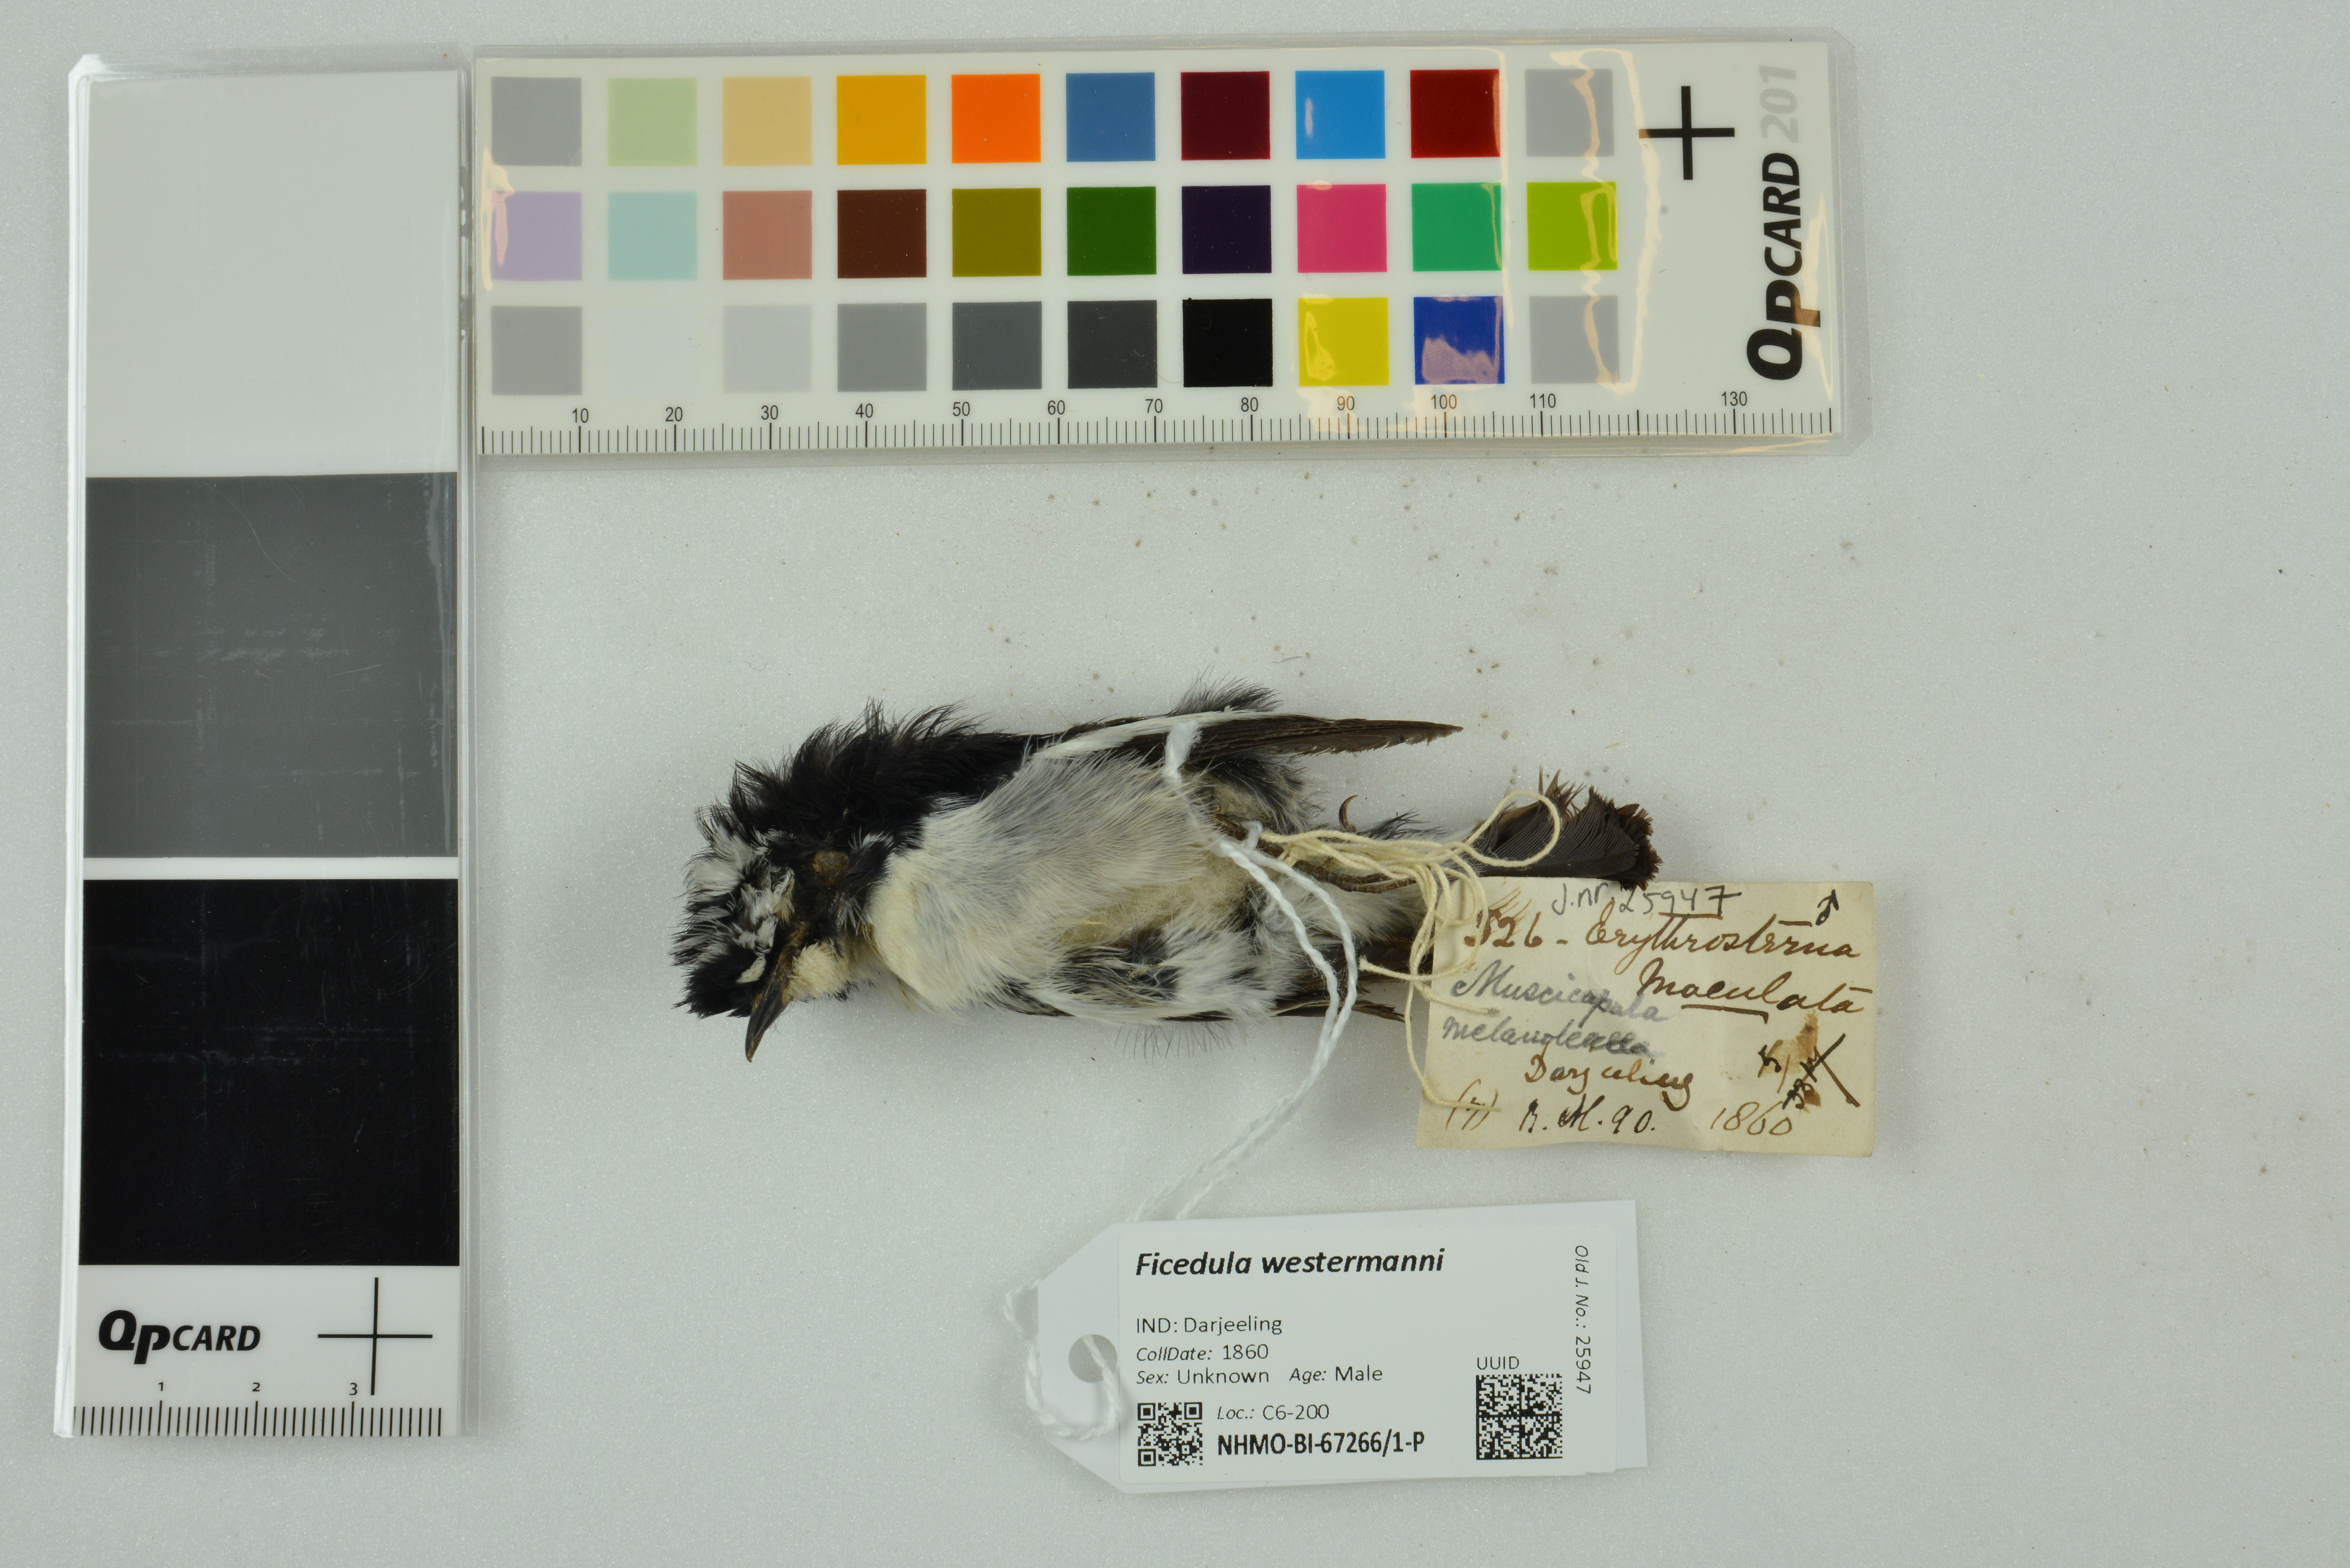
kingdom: Animalia
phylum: Chordata
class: Aves
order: Passeriformes
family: Muscicapidae
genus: Ficedula
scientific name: Ficedula westermanni
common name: Little pied flycatcher
